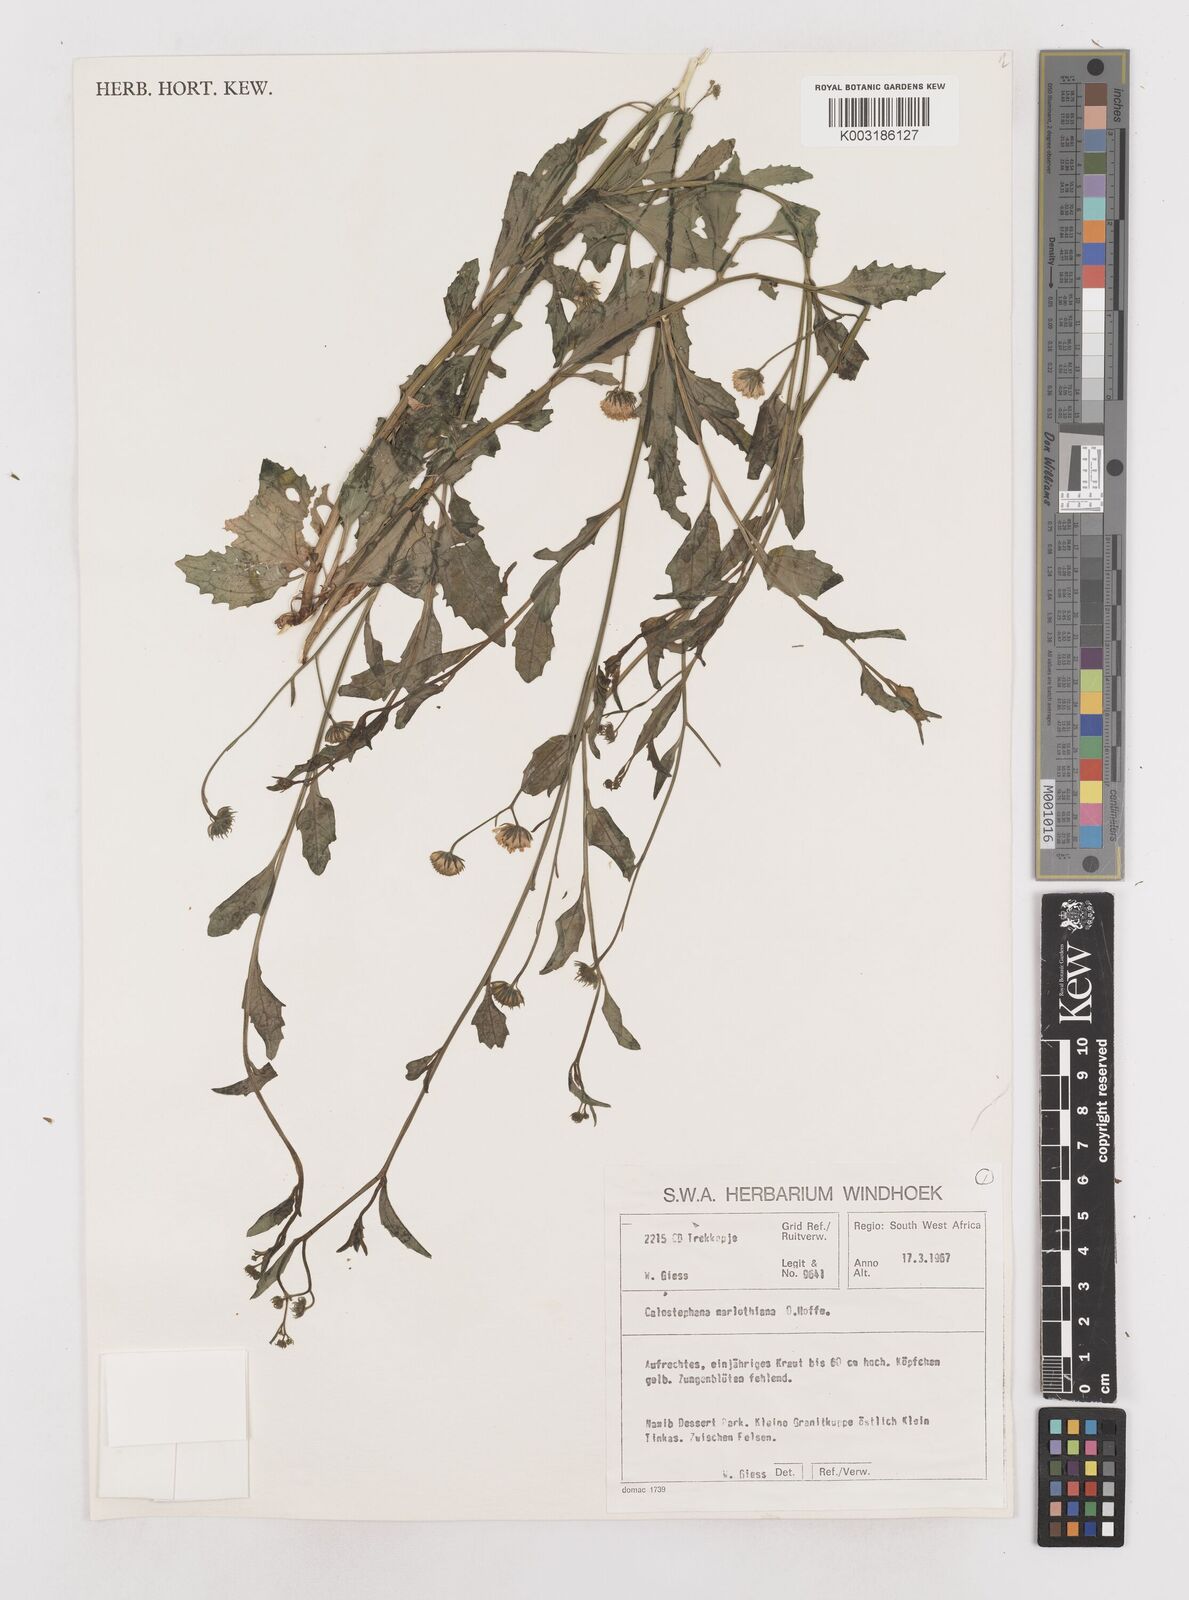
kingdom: Plantae
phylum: Tracheophyta
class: Magnoliopsida
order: Asterales
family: Asteraceae
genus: Calostephane
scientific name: Calostephane marlothiana
